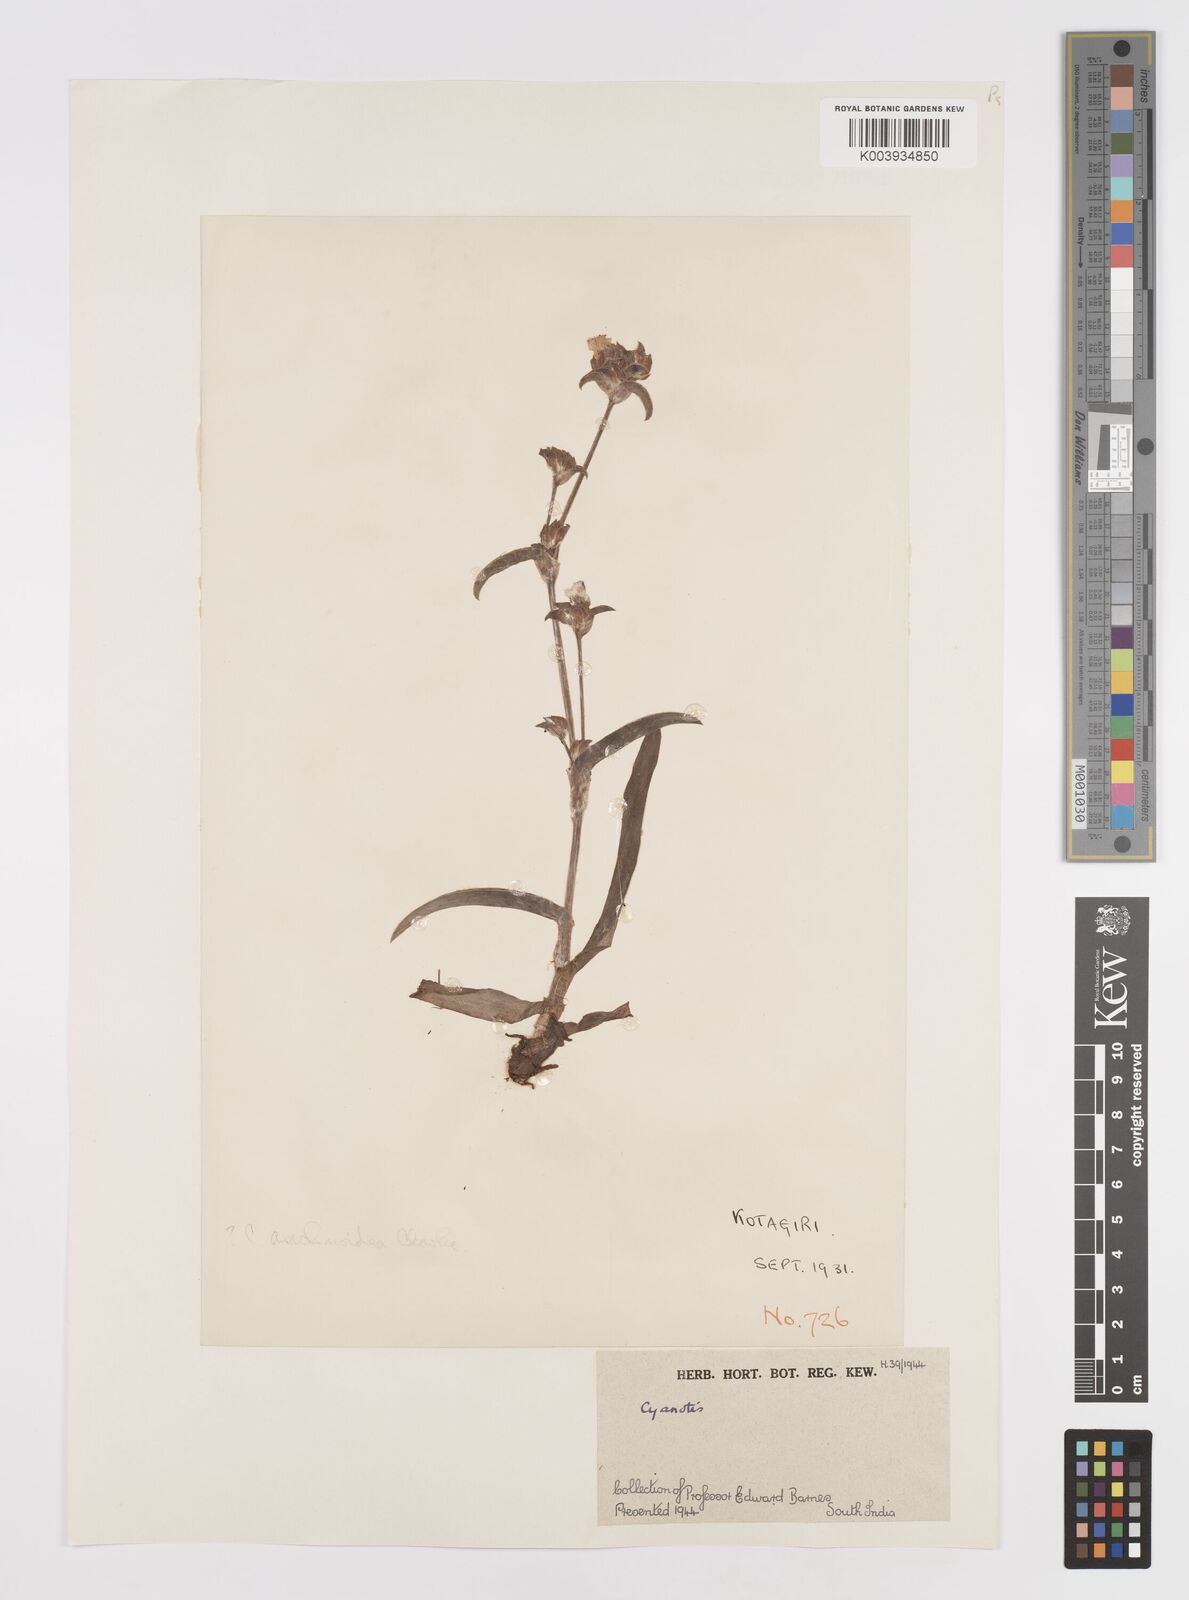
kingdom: Plantae
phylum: Tracheophyta
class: Liliopsida
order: Commelinales
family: Commelinaceae
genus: Cyanotis
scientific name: Cyanotis
